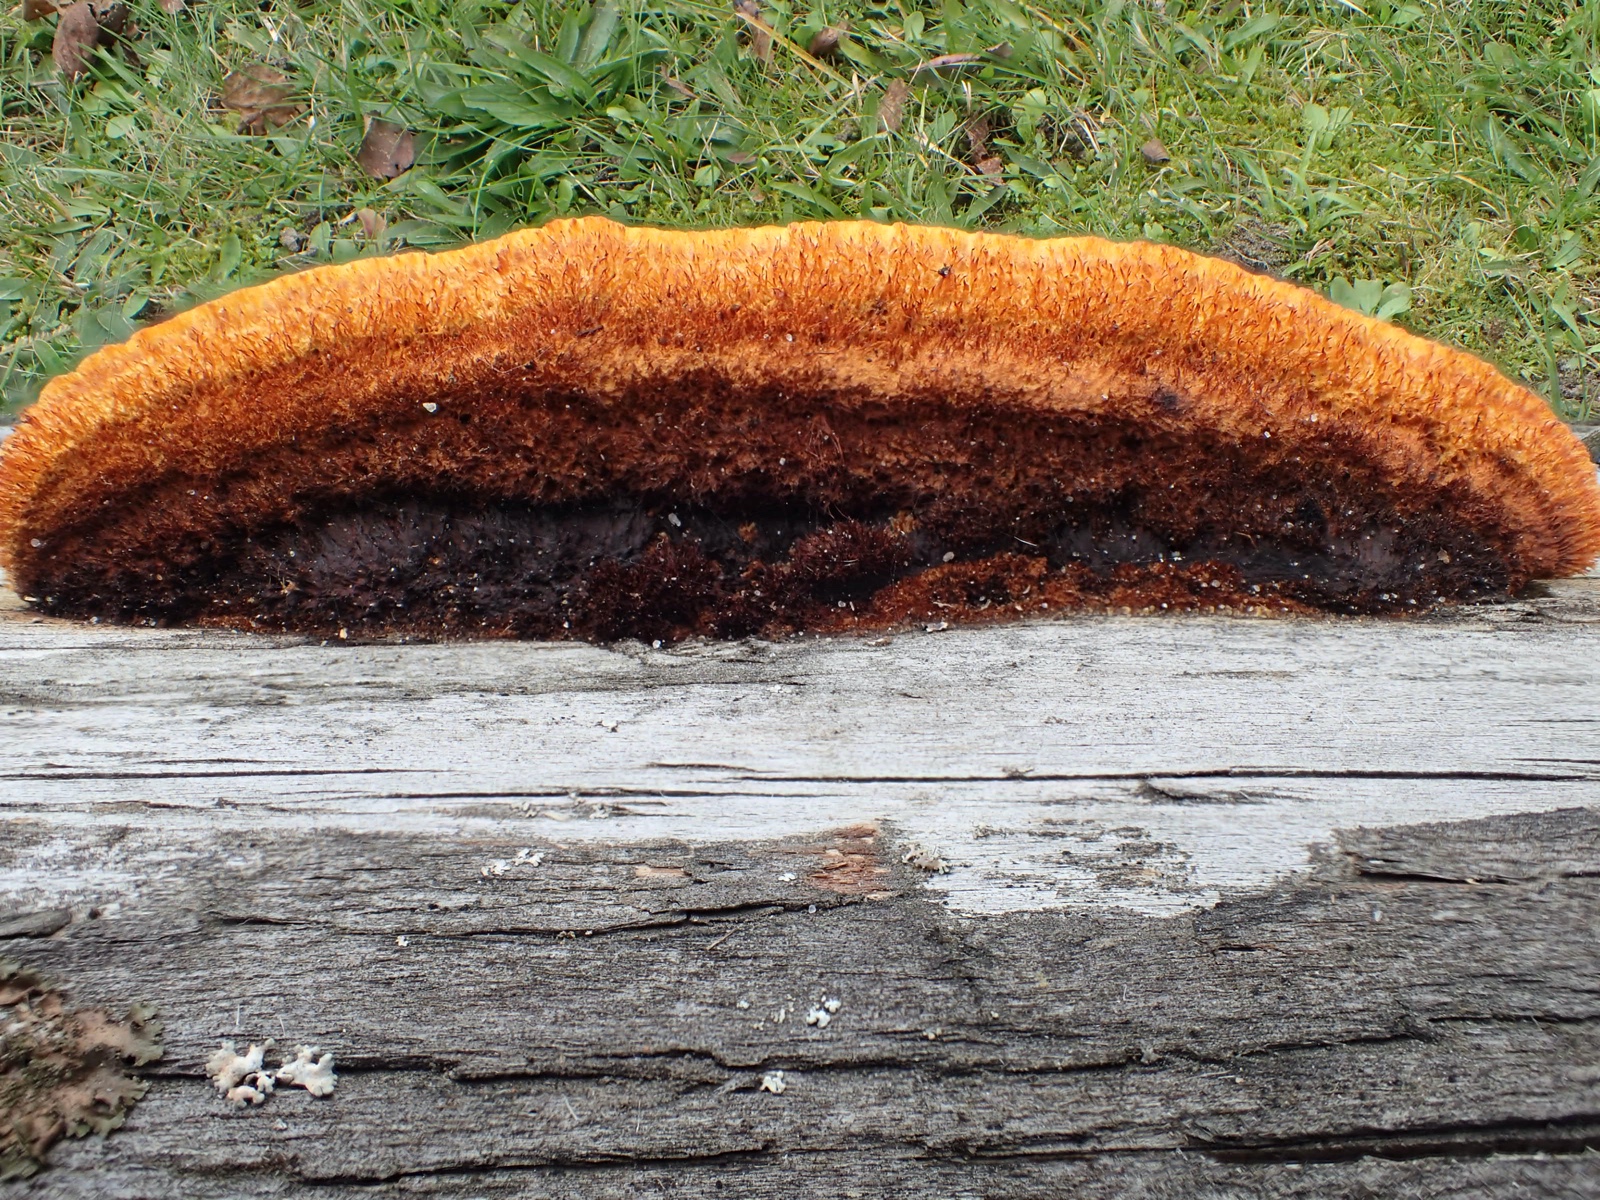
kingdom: Fungi
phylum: Basidiomycota
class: Agaricomycetes
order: Gloeophyllales
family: Gloeophyllaceae
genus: Gloeophyllum
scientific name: Gloeophyllum sepiarium
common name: fyrre-korkhat
